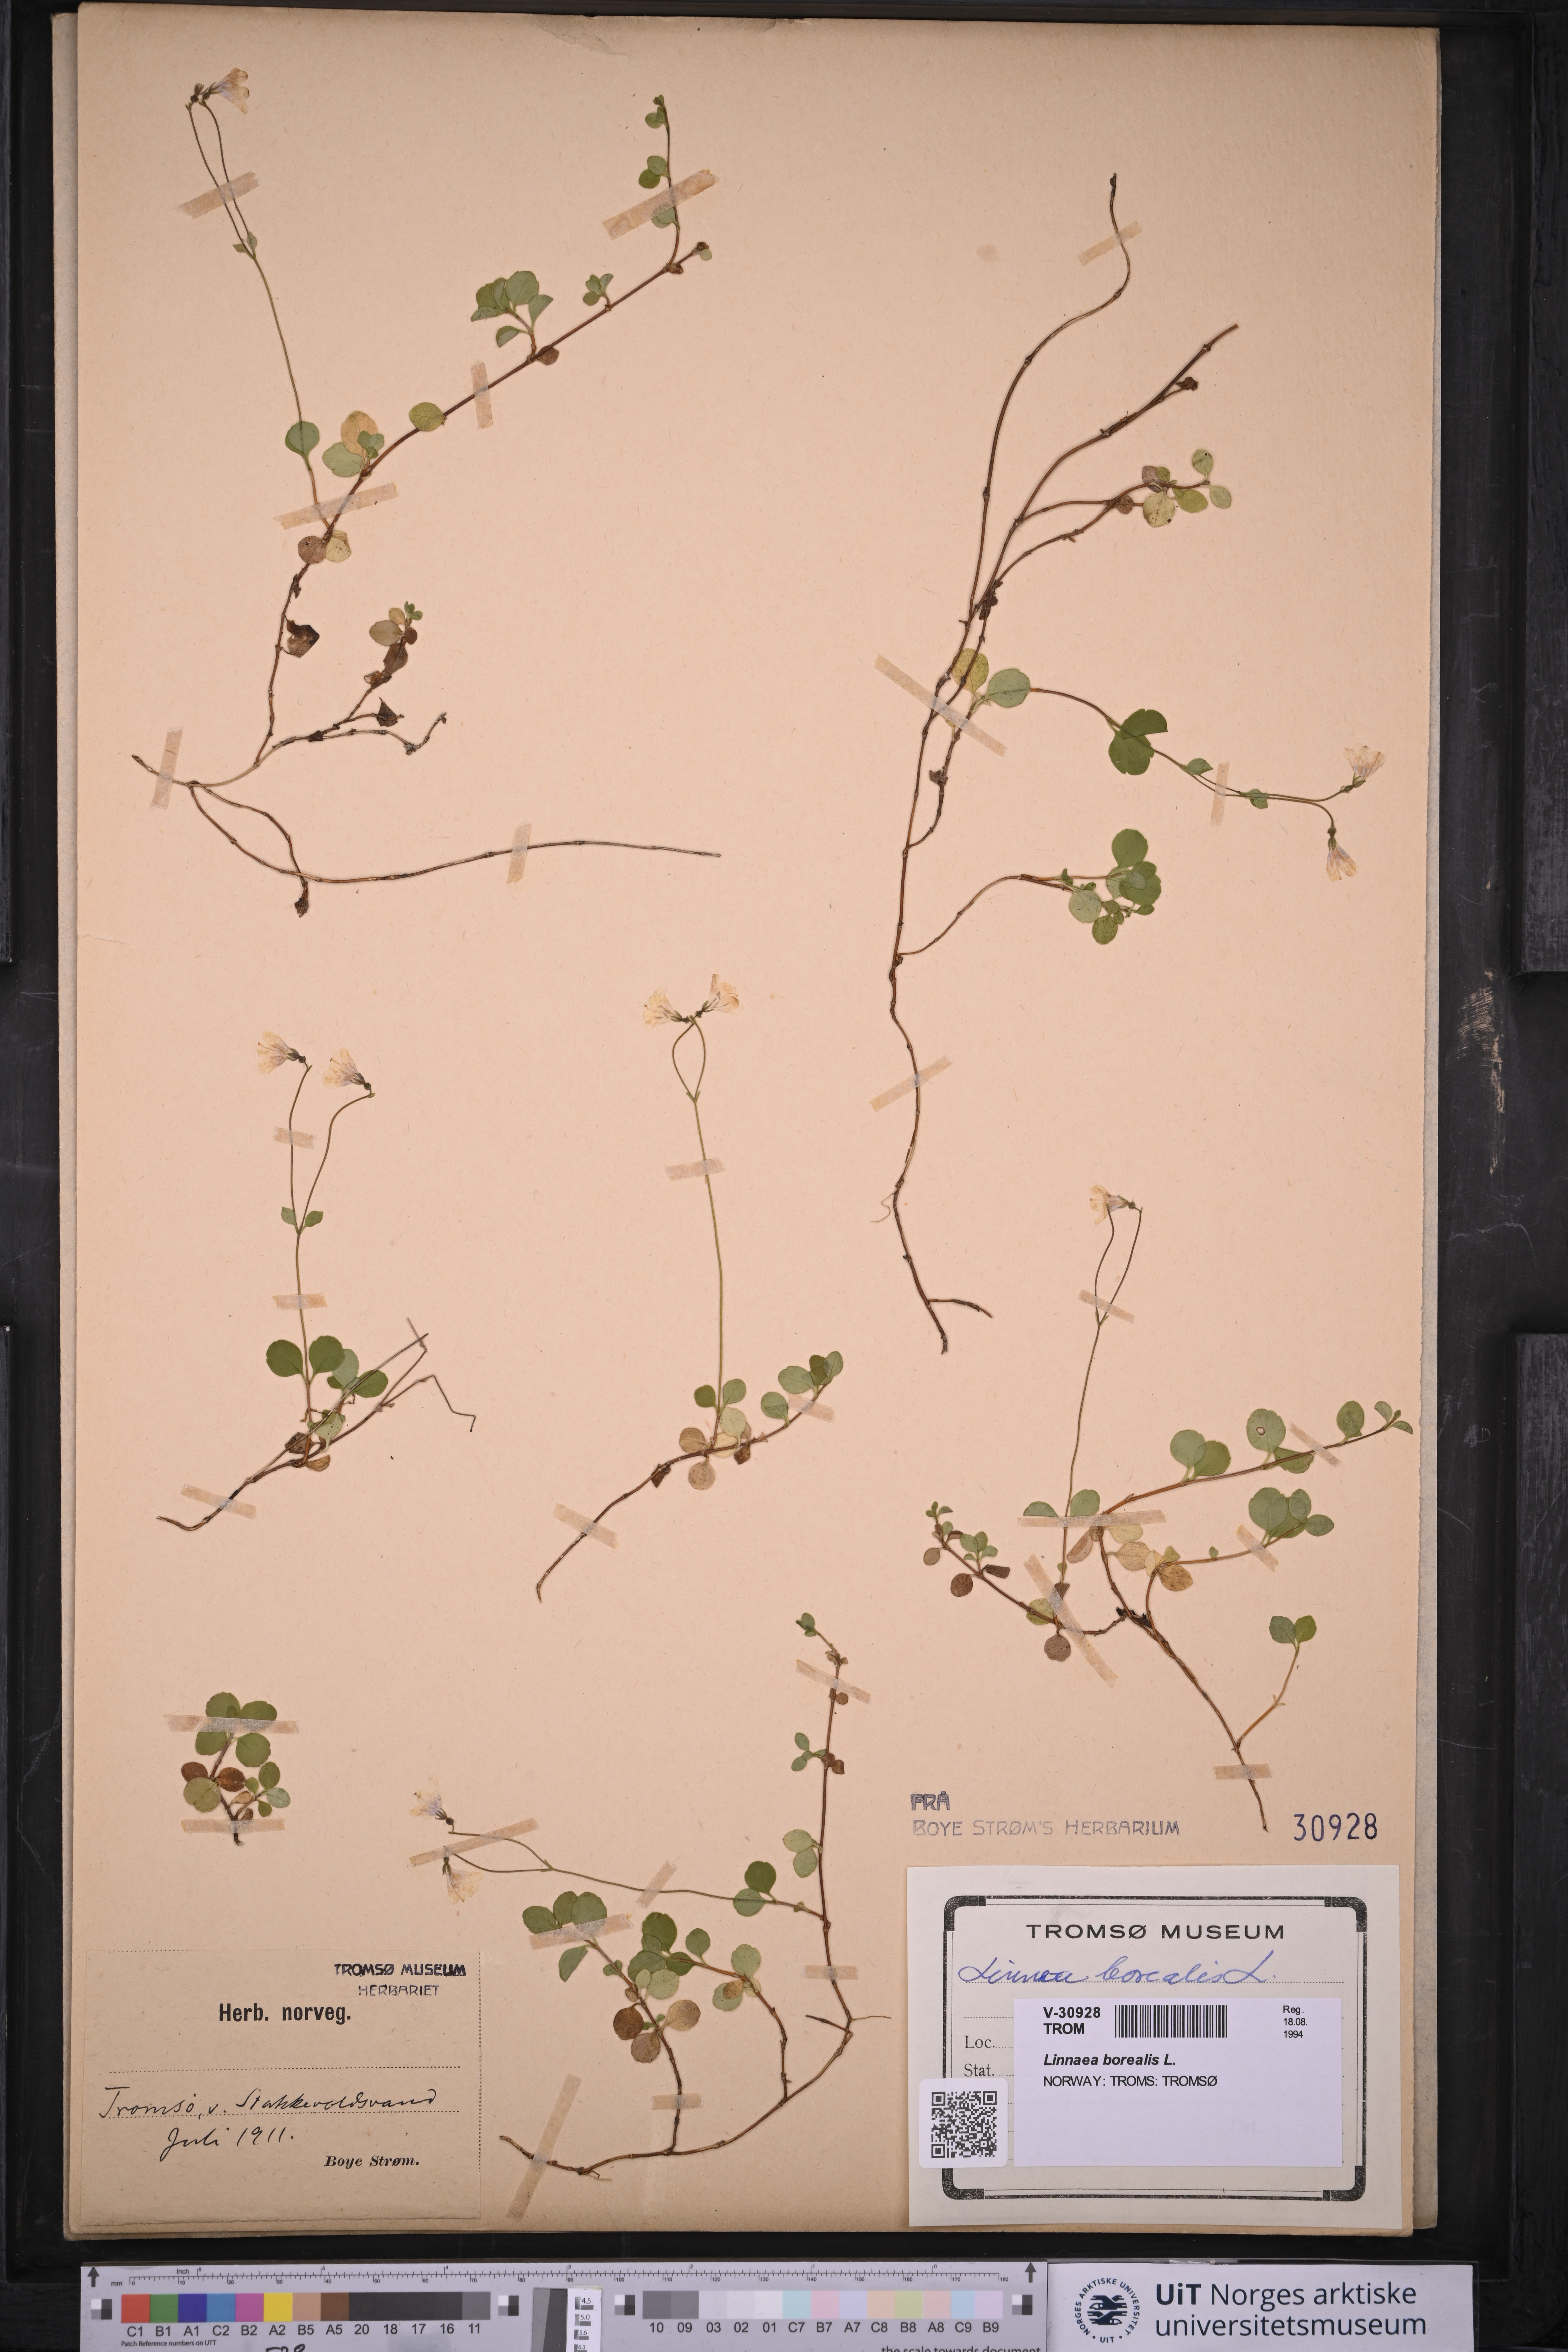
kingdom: Plantae
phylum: Tracheophyta
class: Magnoliopsida
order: Dipsacales
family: Caprifoliaceae
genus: Linnaea
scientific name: Linnaea borealis
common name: Twinflower
